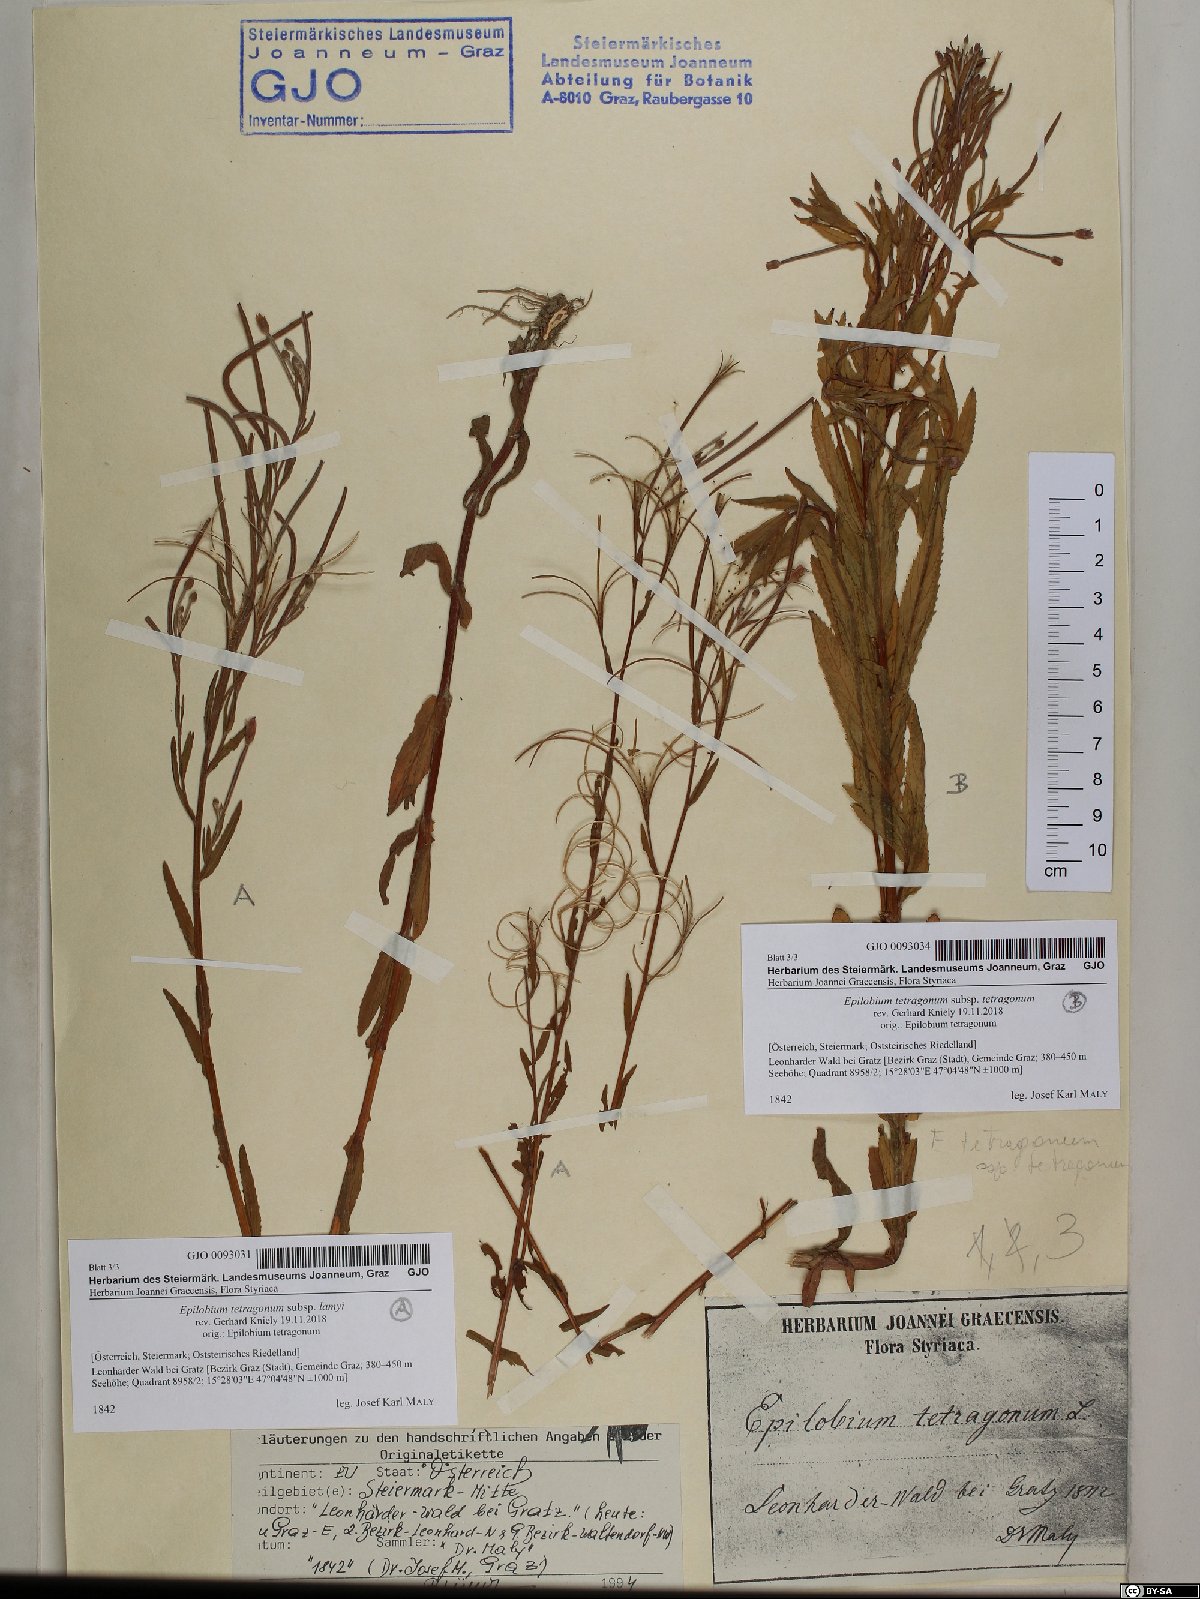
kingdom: Plantae
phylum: Tracheophyta
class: Magnoliopsida
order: Myrtales
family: Onagraceae
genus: Epilobium
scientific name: Epilobium tetragonum
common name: Square-stemmed willowherb
